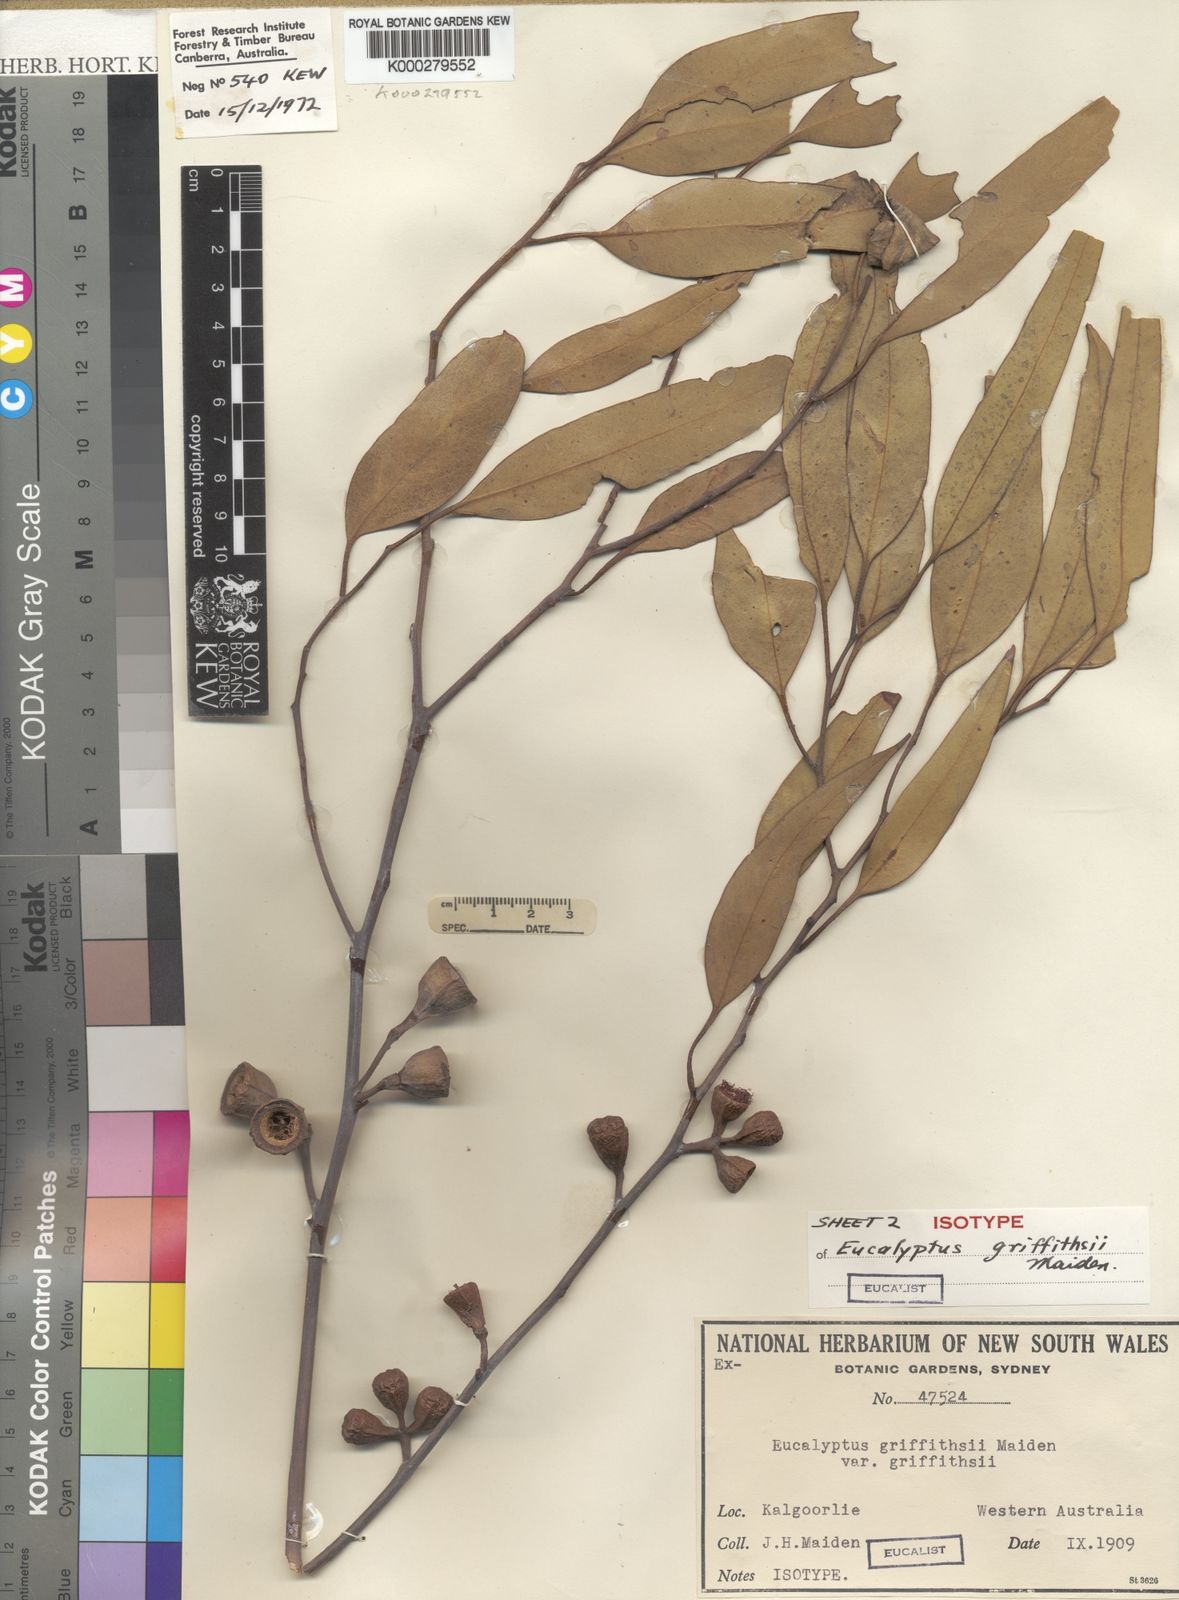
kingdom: Plantae
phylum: Tracheophyta
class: Magnoliopsida
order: Myrtales
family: Myrtaceae
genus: Eucalyptus
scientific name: Eucalyptus griffithsii
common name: Griffith's grey gum
